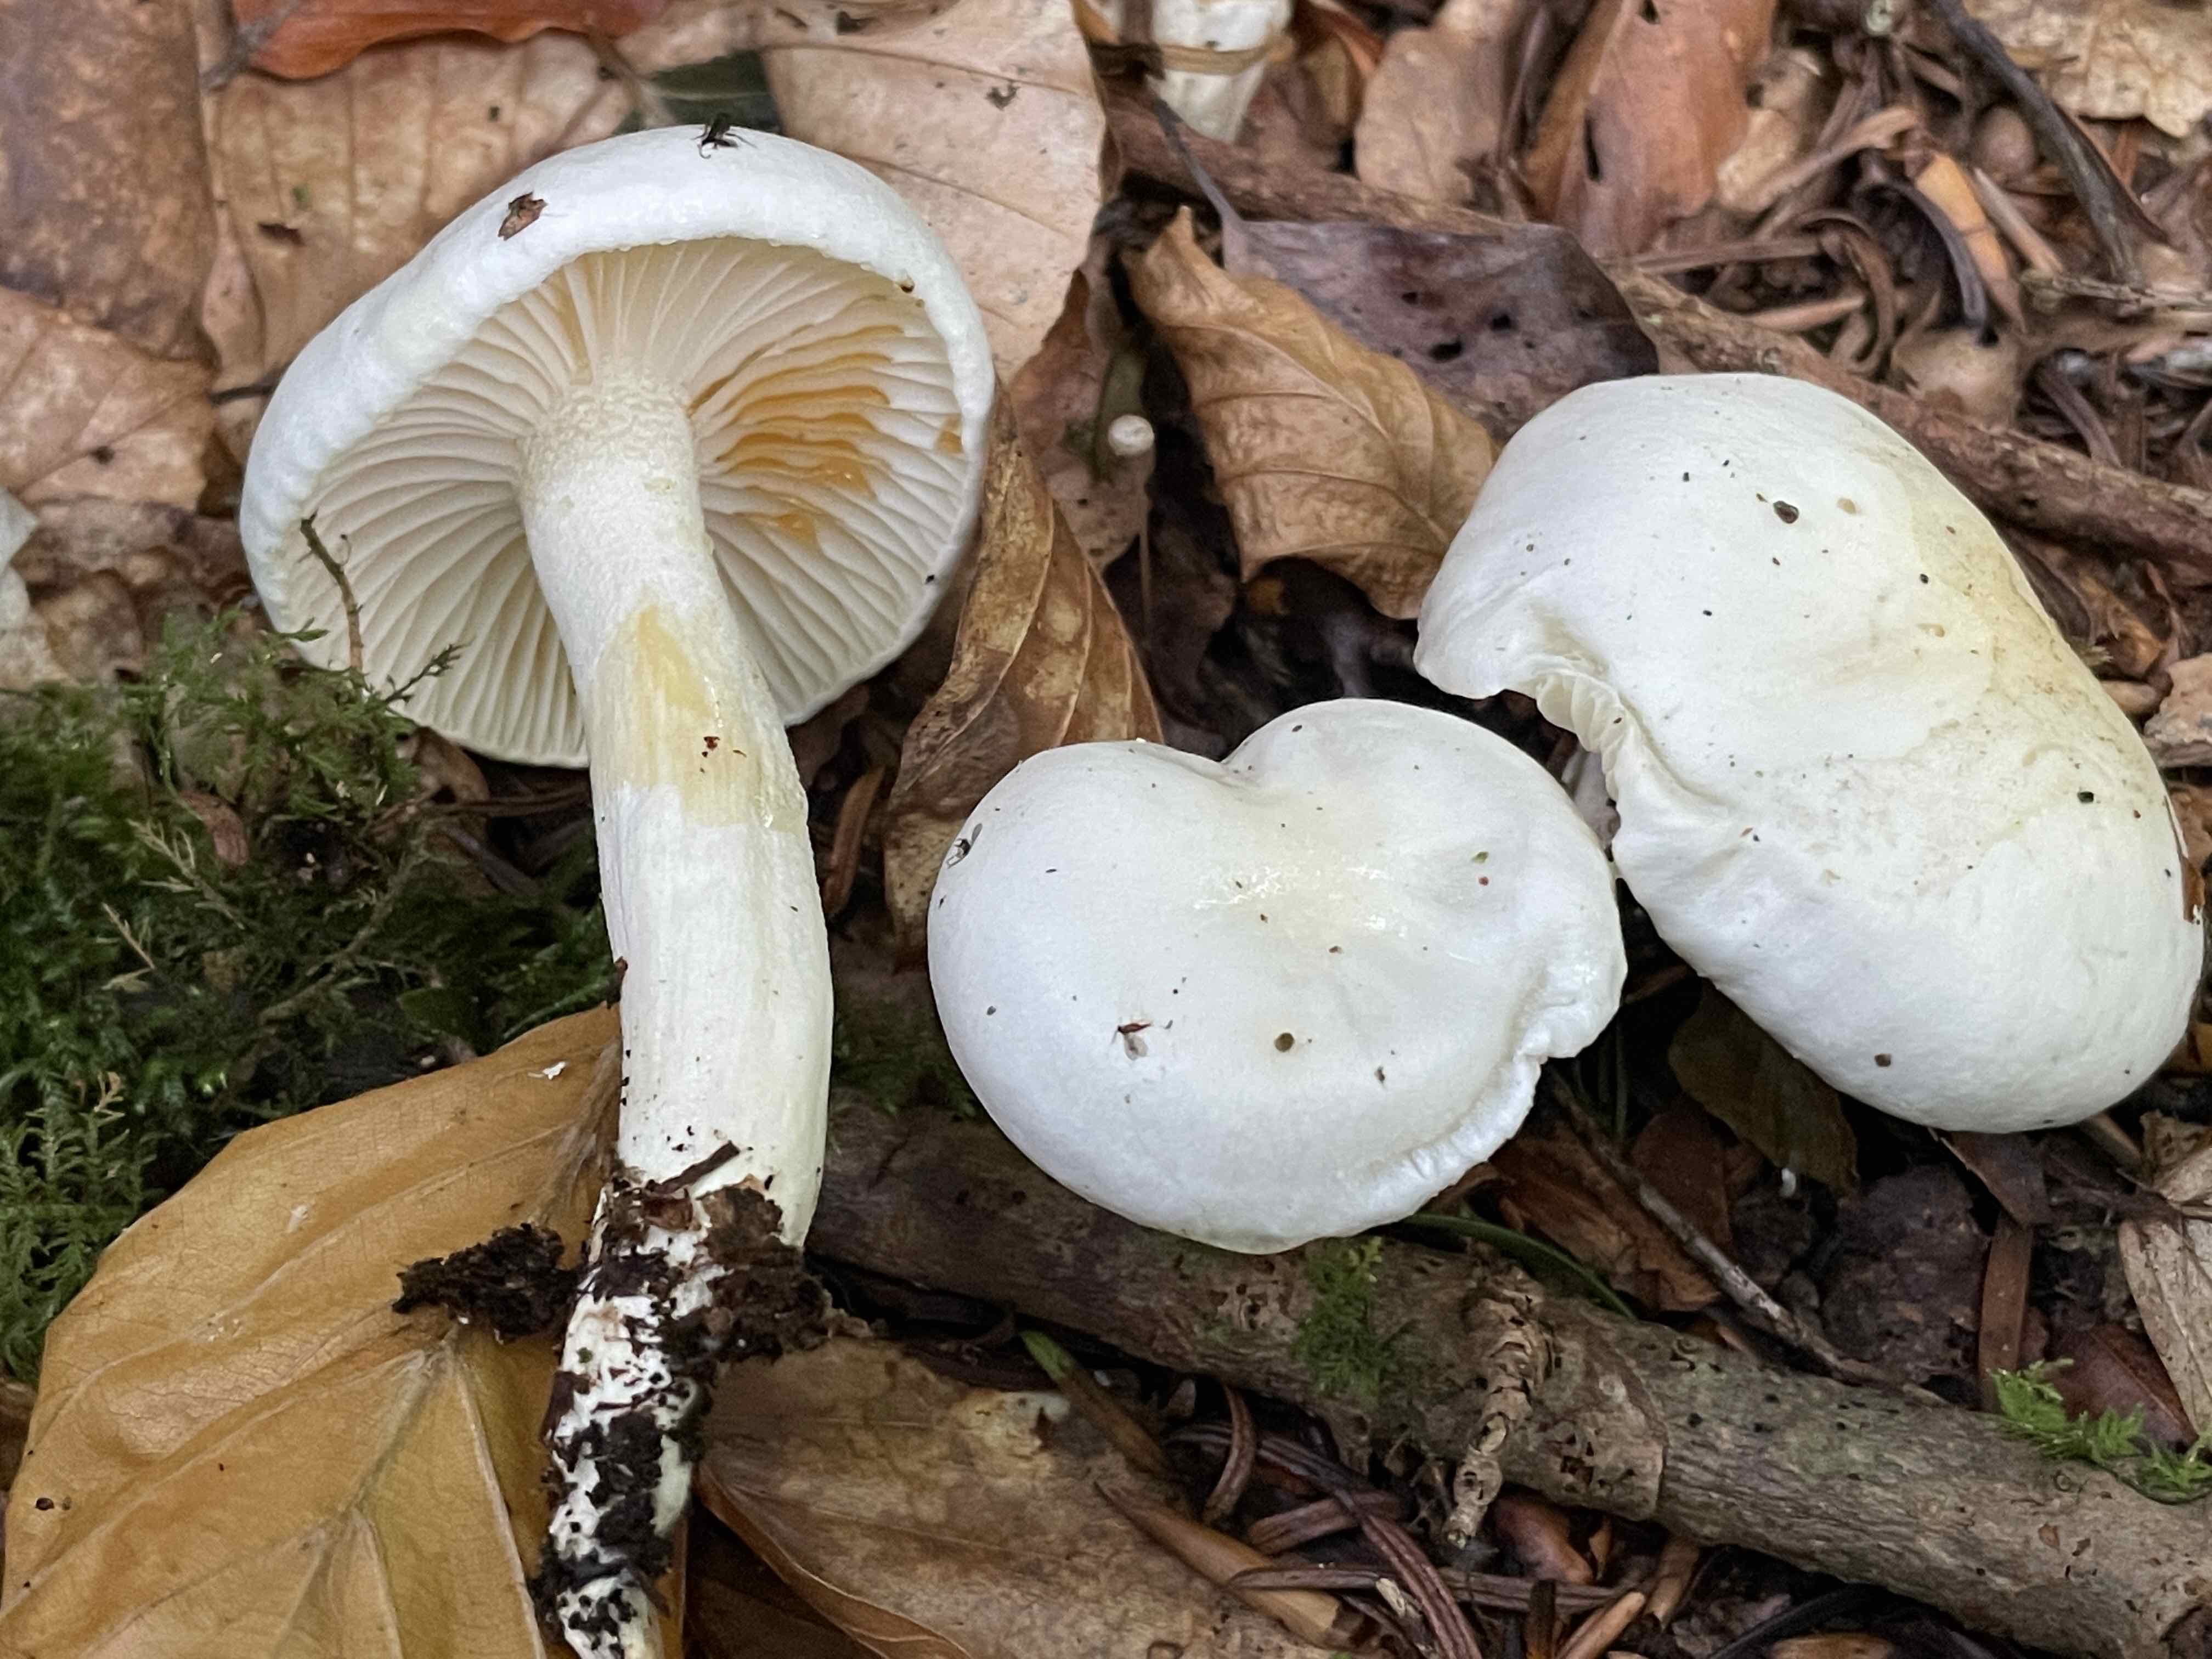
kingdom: Fungi
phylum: Basidiomycota
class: Agaricomycetes
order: Agaricales
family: Hygrophoraceae
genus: Hygrophorus
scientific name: Hygrophorus discoxanthus
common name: ildelugtende sneglehat
